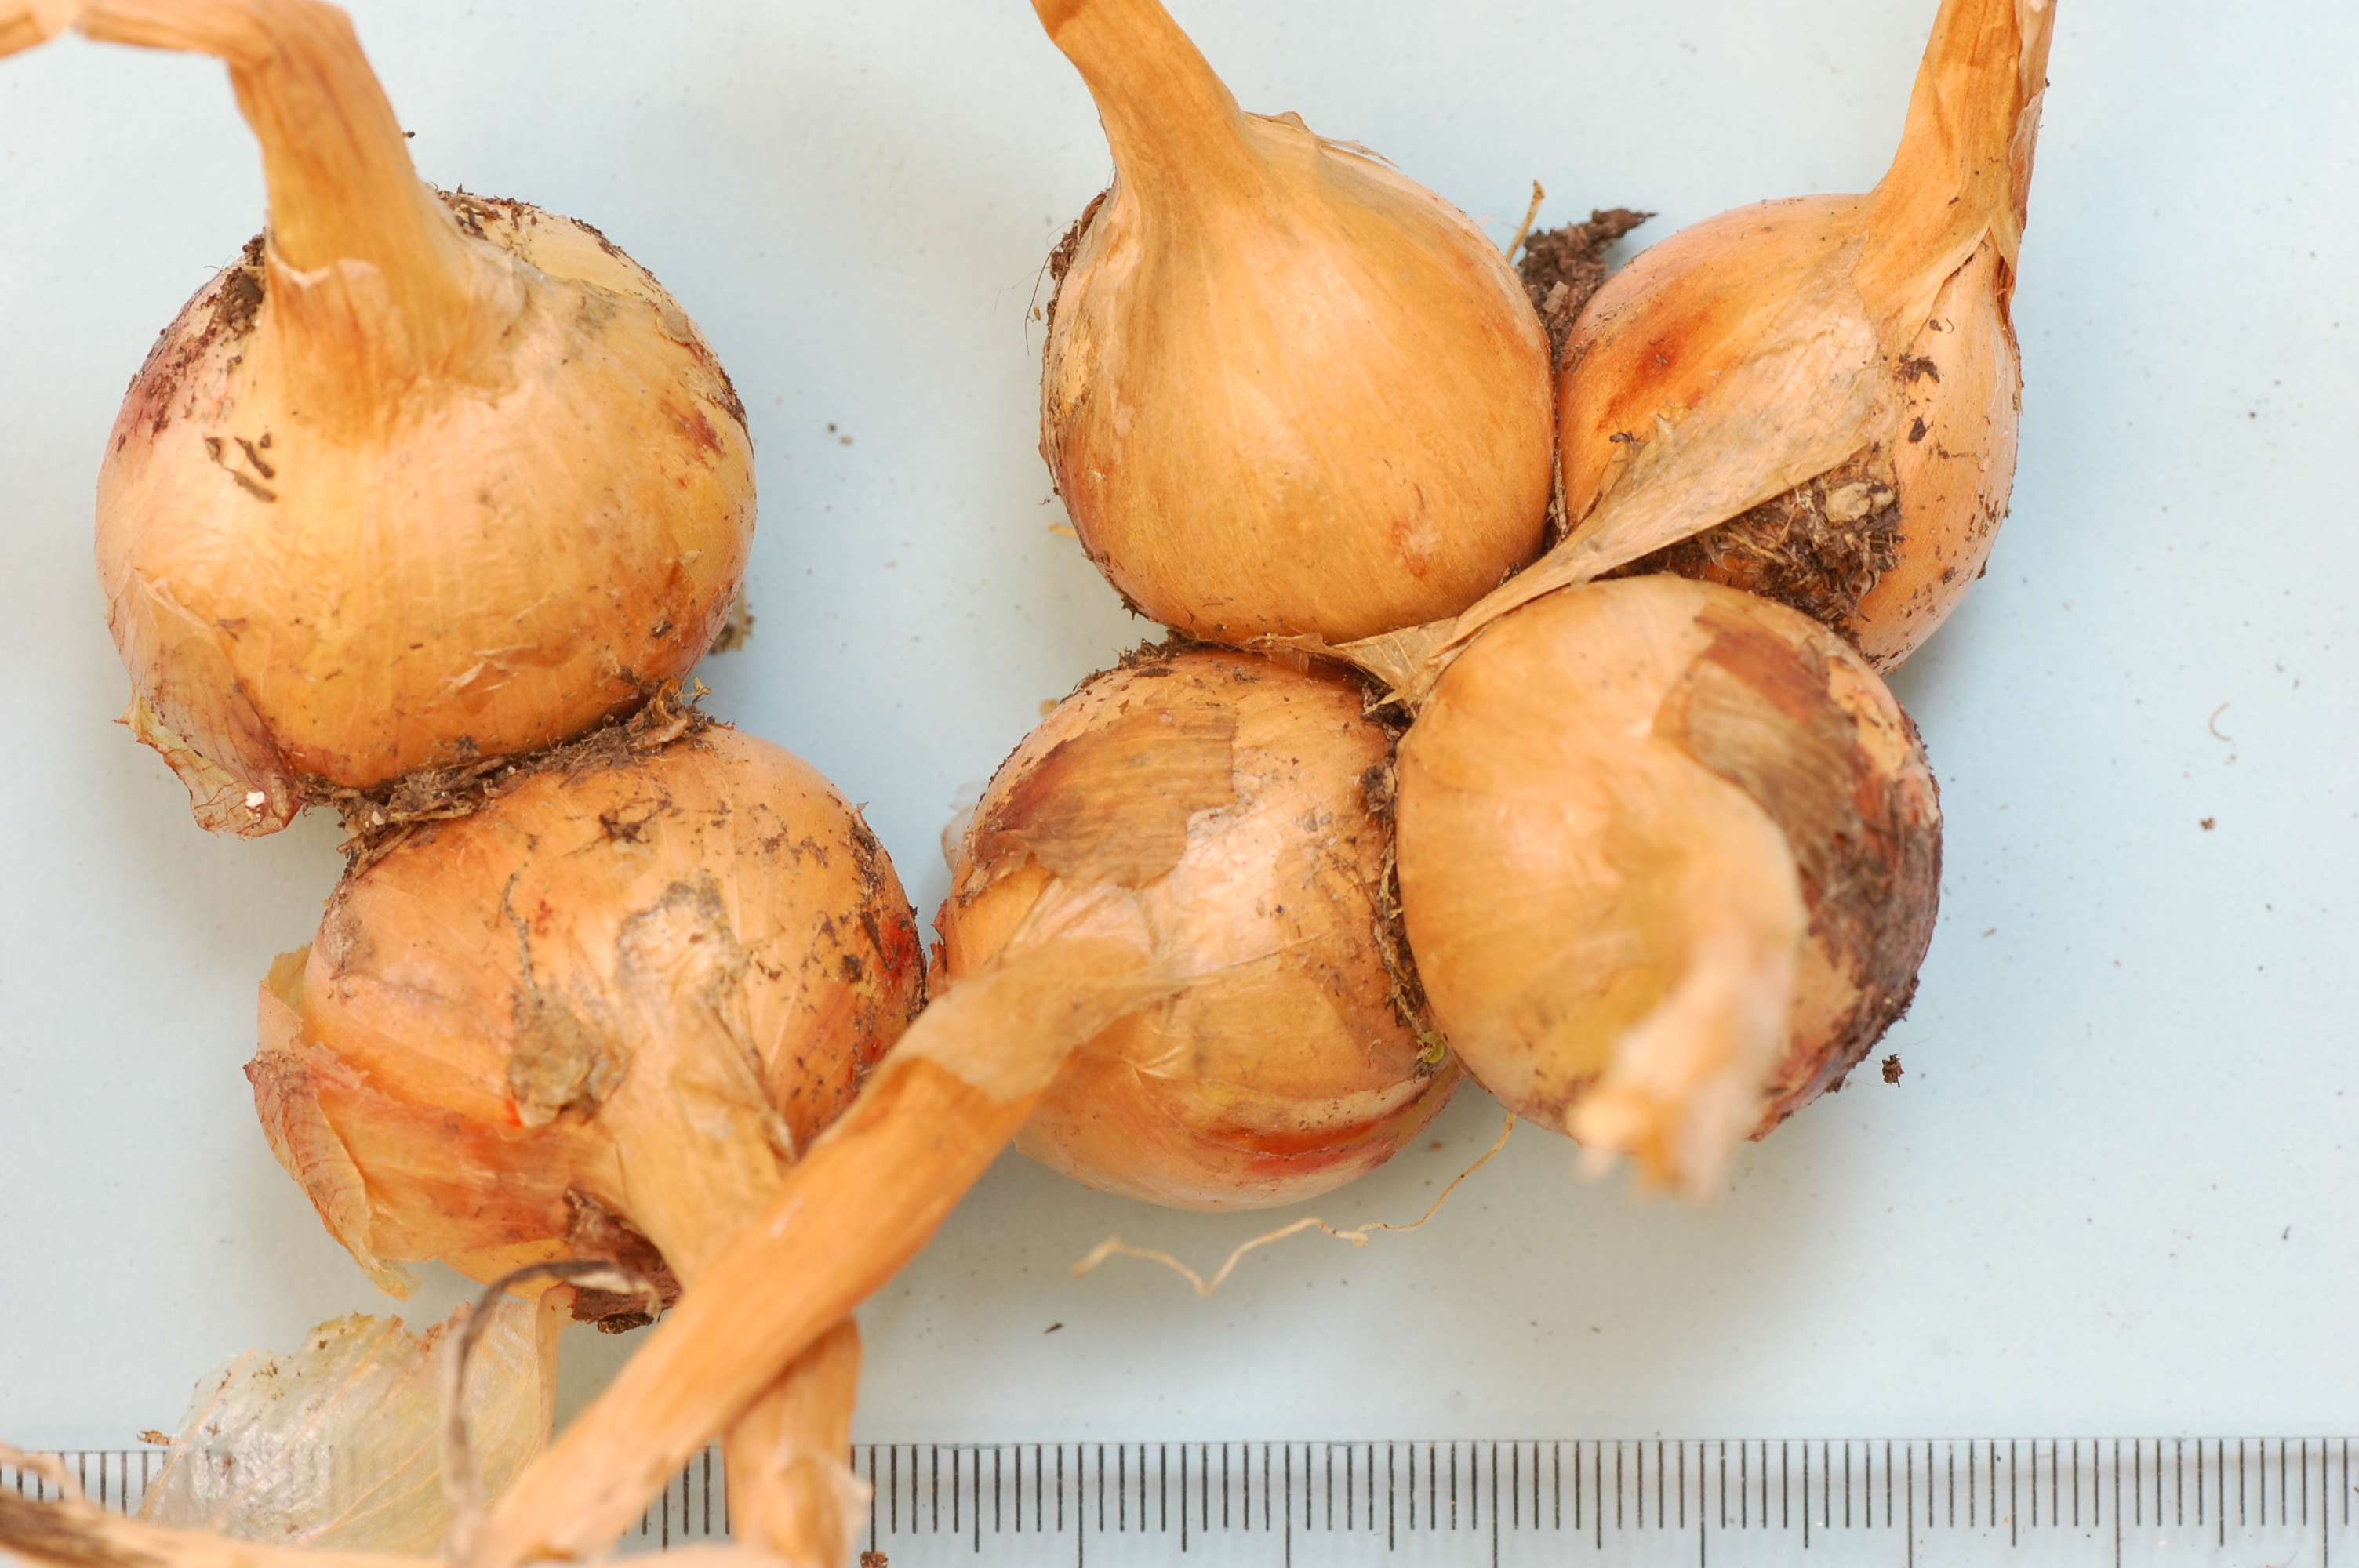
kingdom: Plantae
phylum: Tracheophyta
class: Liliopsida
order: Asparagales
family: Amaryllidaceae
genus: Allium
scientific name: Allium cepa
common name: Onion
